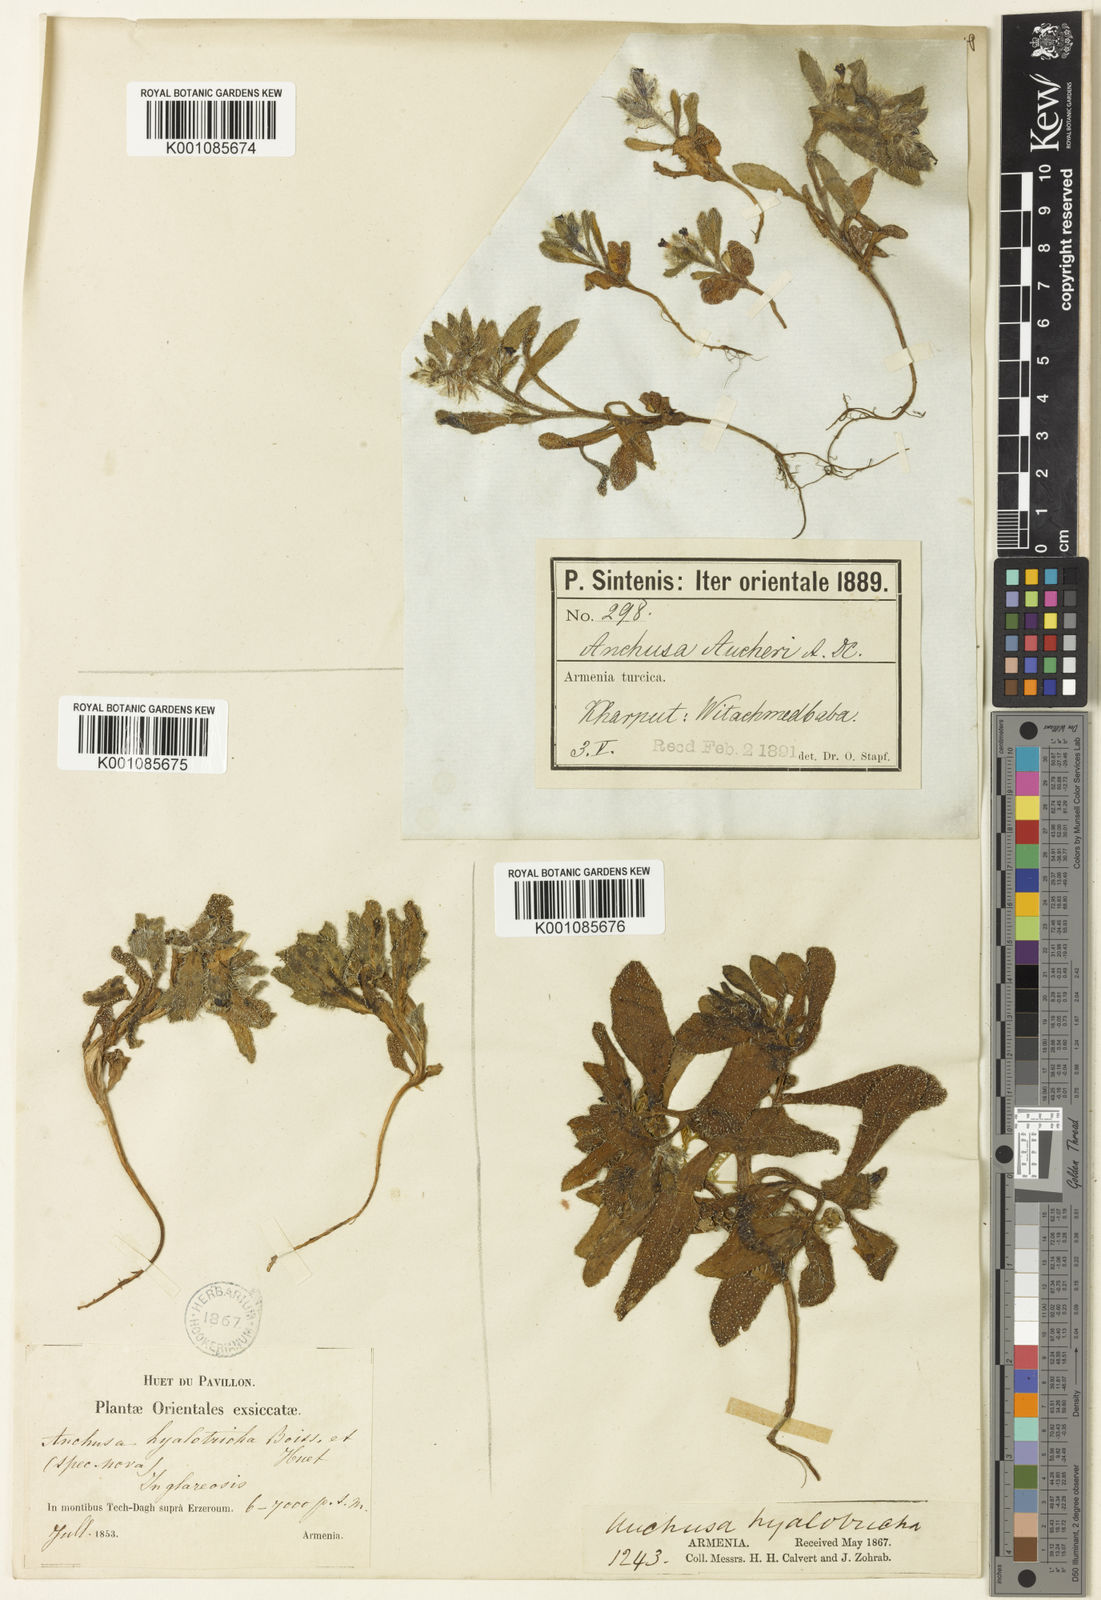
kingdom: Plantae
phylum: Tracheophyta
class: Magnoliopsida
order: Boraginales
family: Boraginaceae
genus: Phyllocara
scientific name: Phyllocara aucheri
